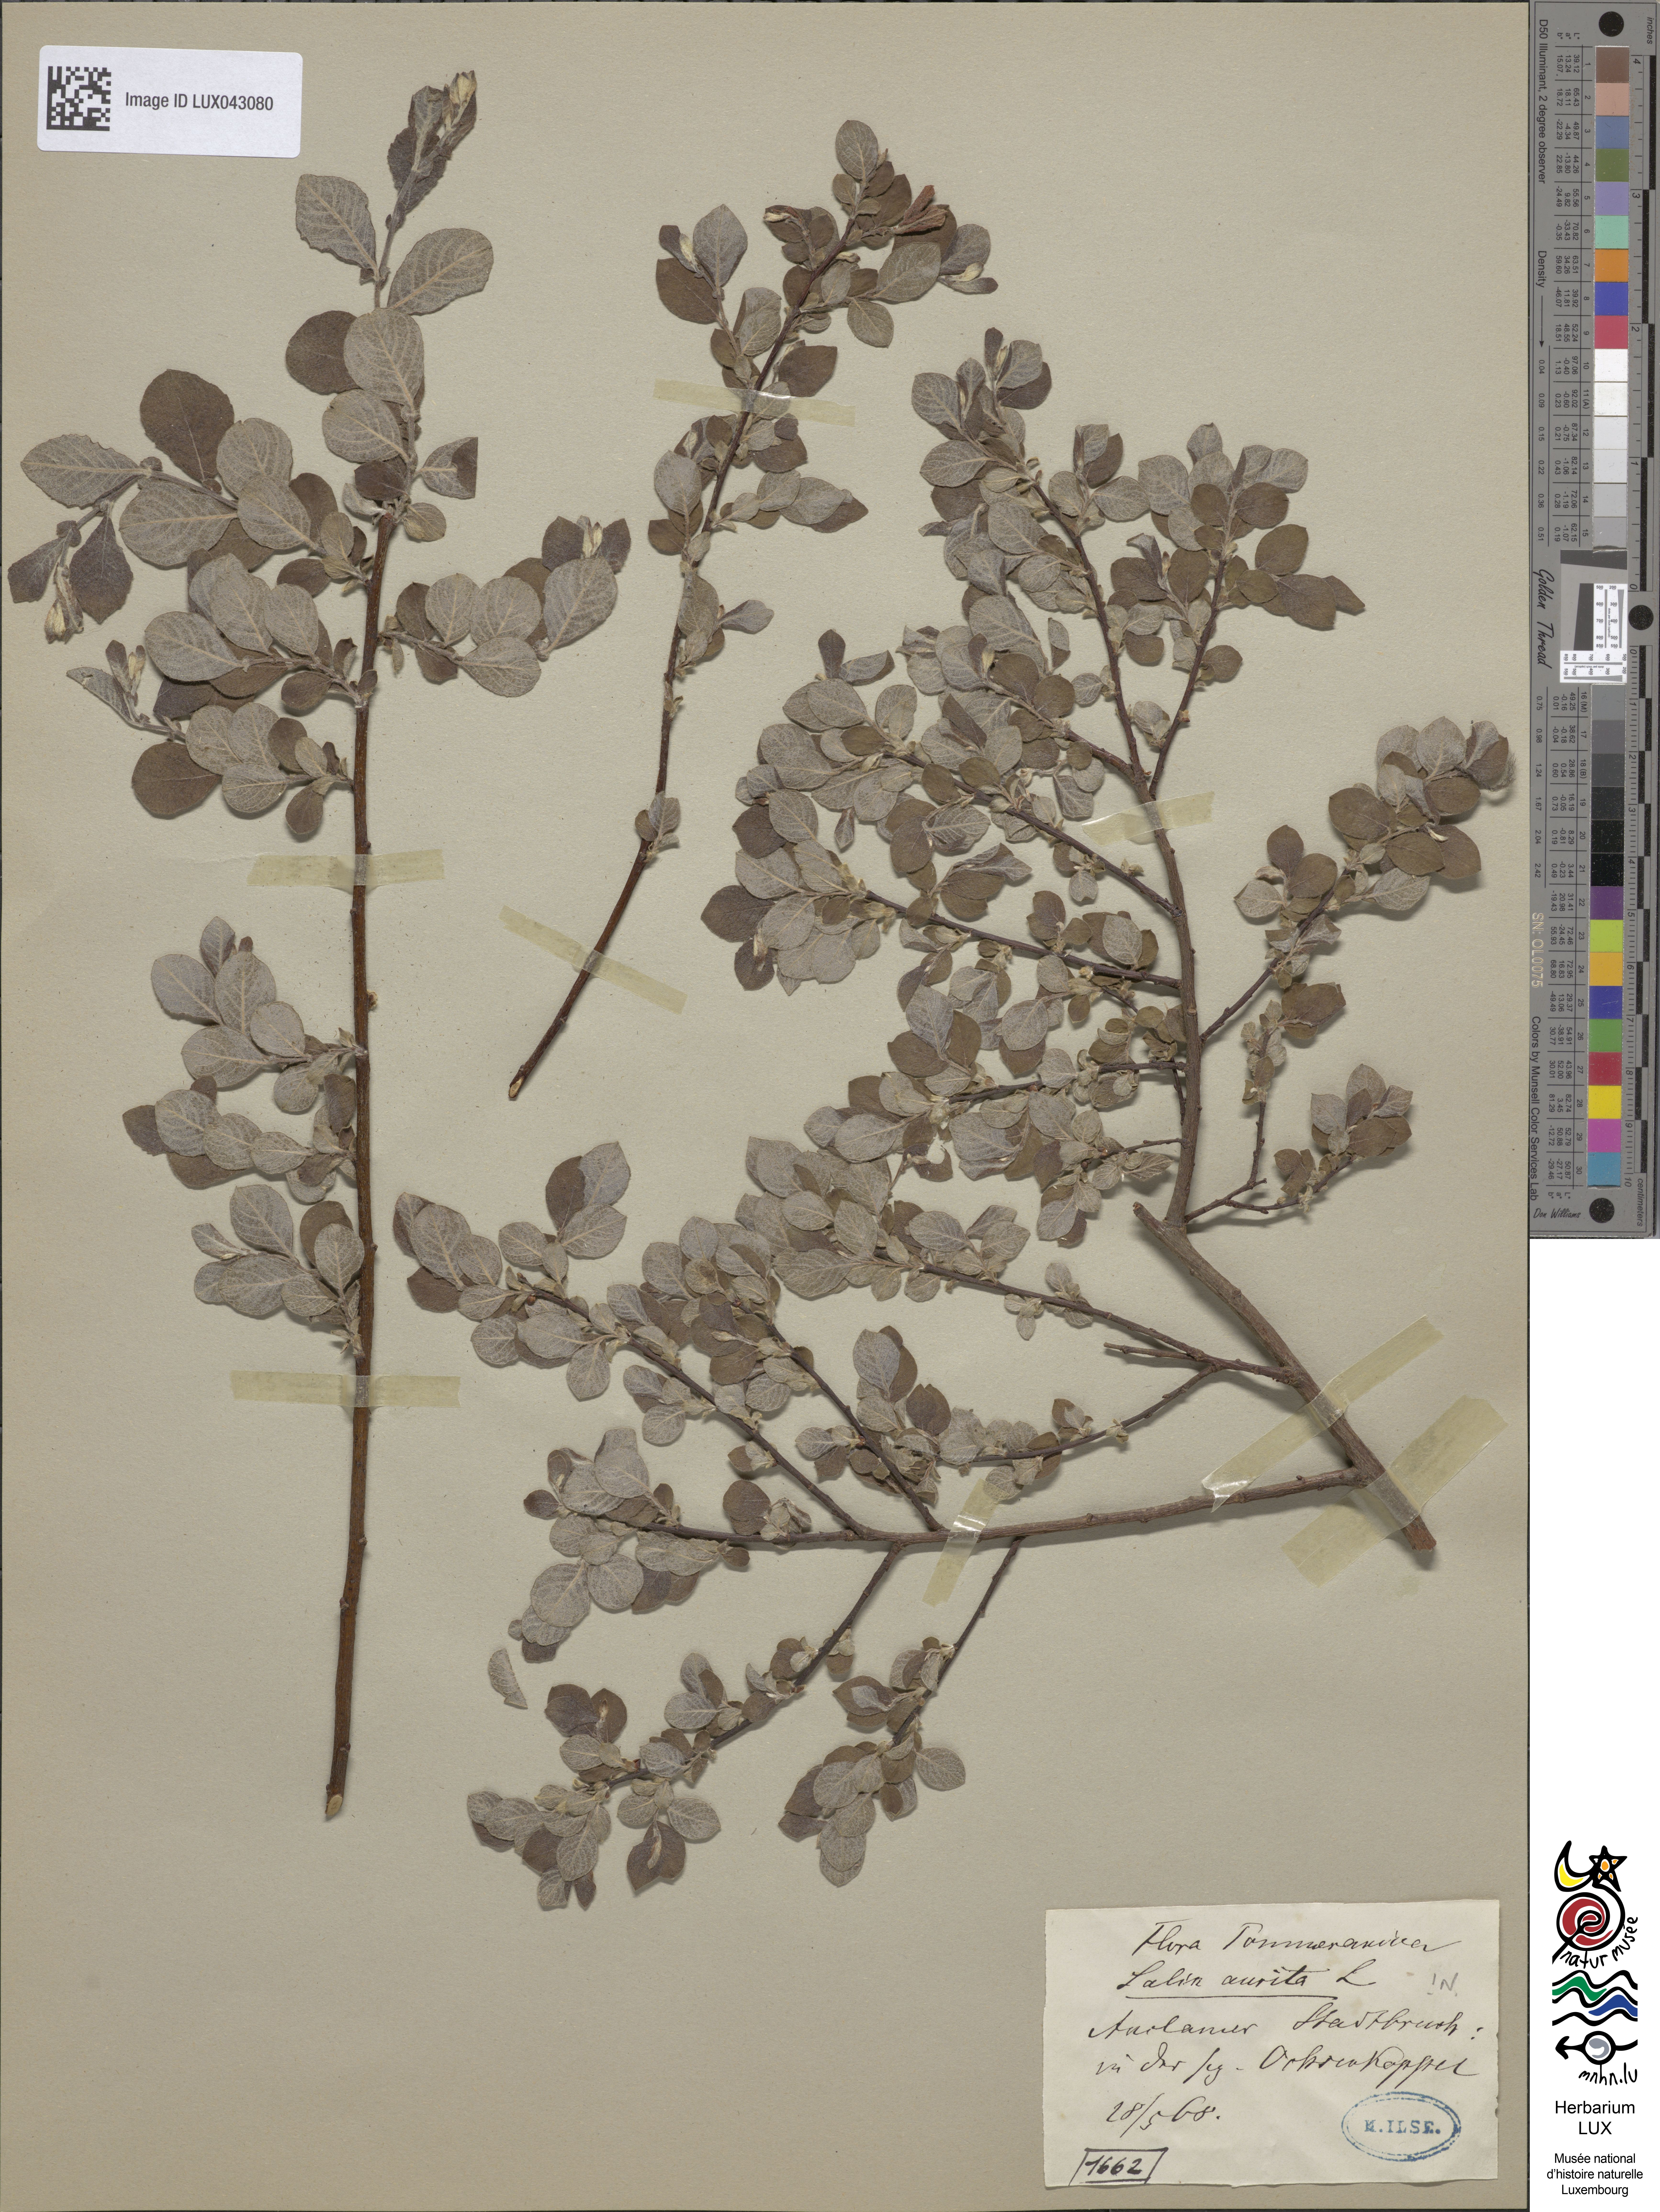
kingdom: Plantae
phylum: Tracheophyta
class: Magnoliopsida
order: Malpighiales
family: Salicaceae
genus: Salix
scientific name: Salix aurita
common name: Eared willow
